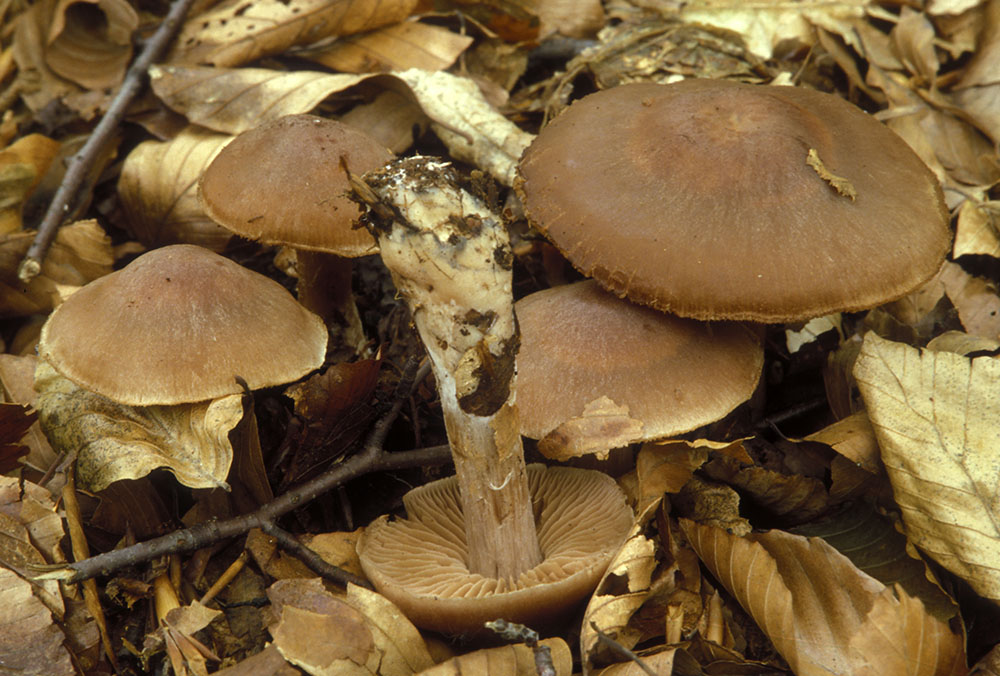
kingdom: Fungi
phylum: Basidiomycota
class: Agaricomycetes
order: Agaricales
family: Cortinariaceae
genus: Cortinarius
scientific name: Cortinarius phaeosmus
